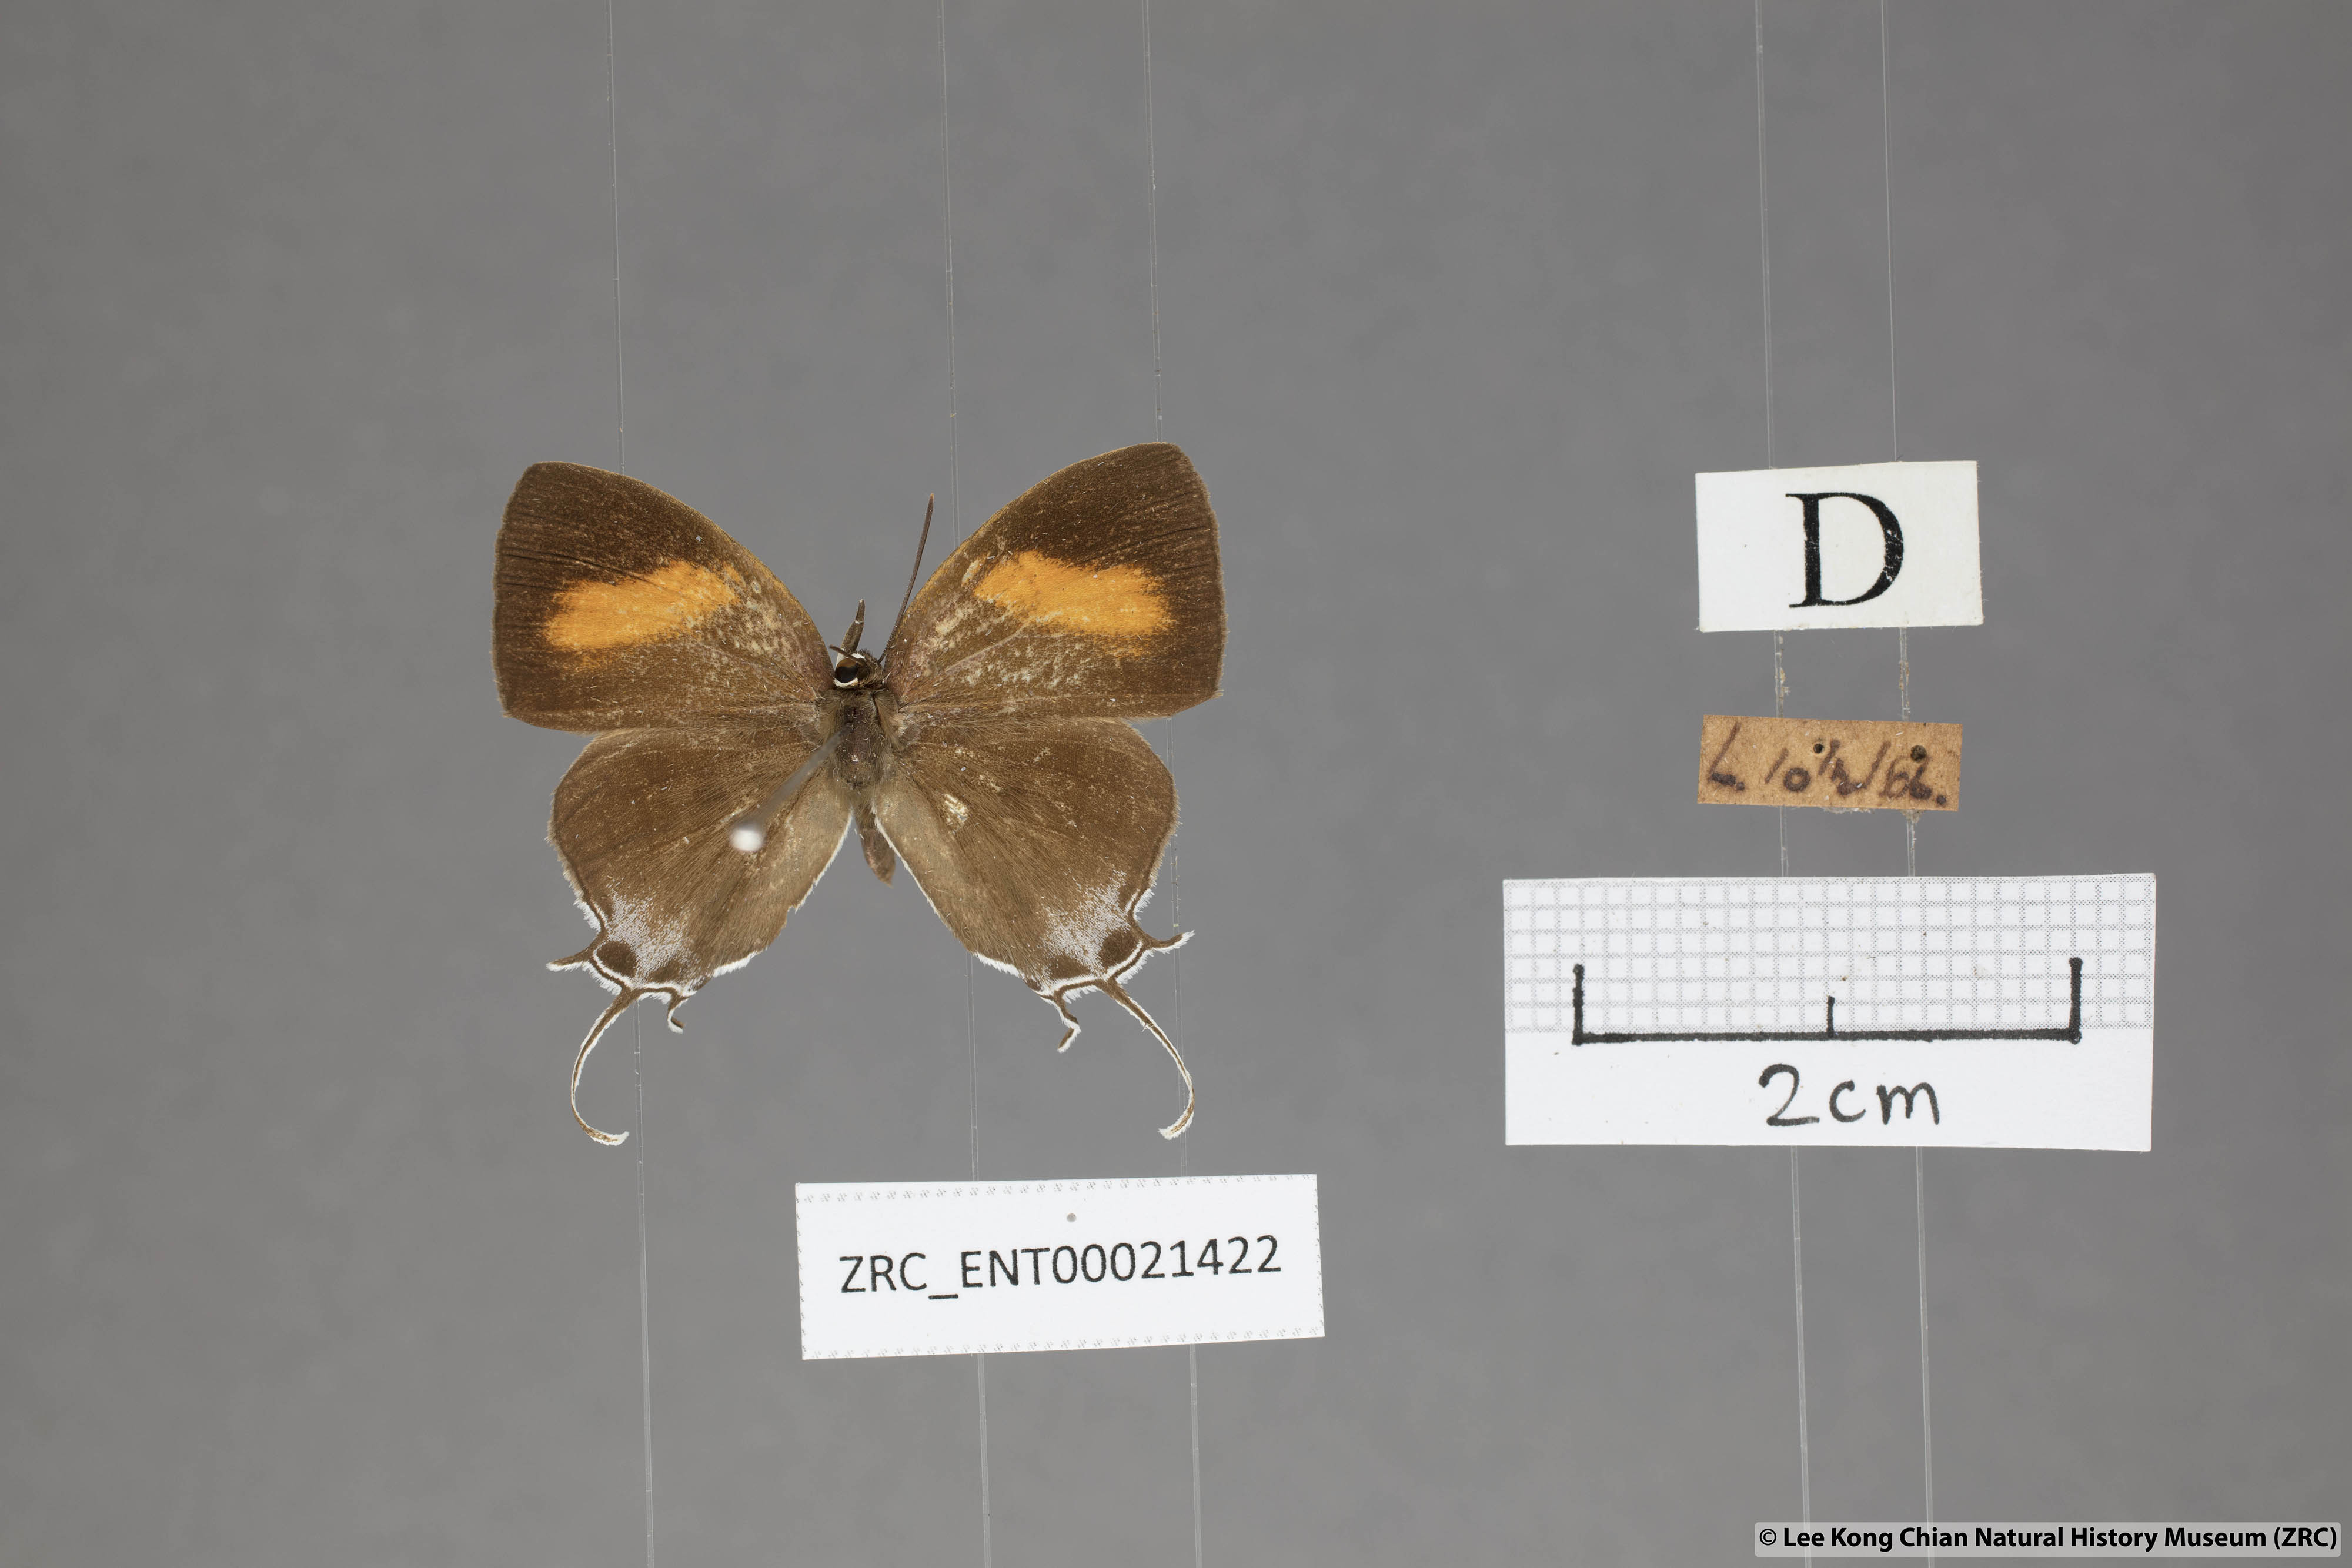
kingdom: Animalia
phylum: Arthropoda
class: Insecta
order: Lepidoptera
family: Lycaenidae
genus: Drupadia
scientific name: Drupadia theda
